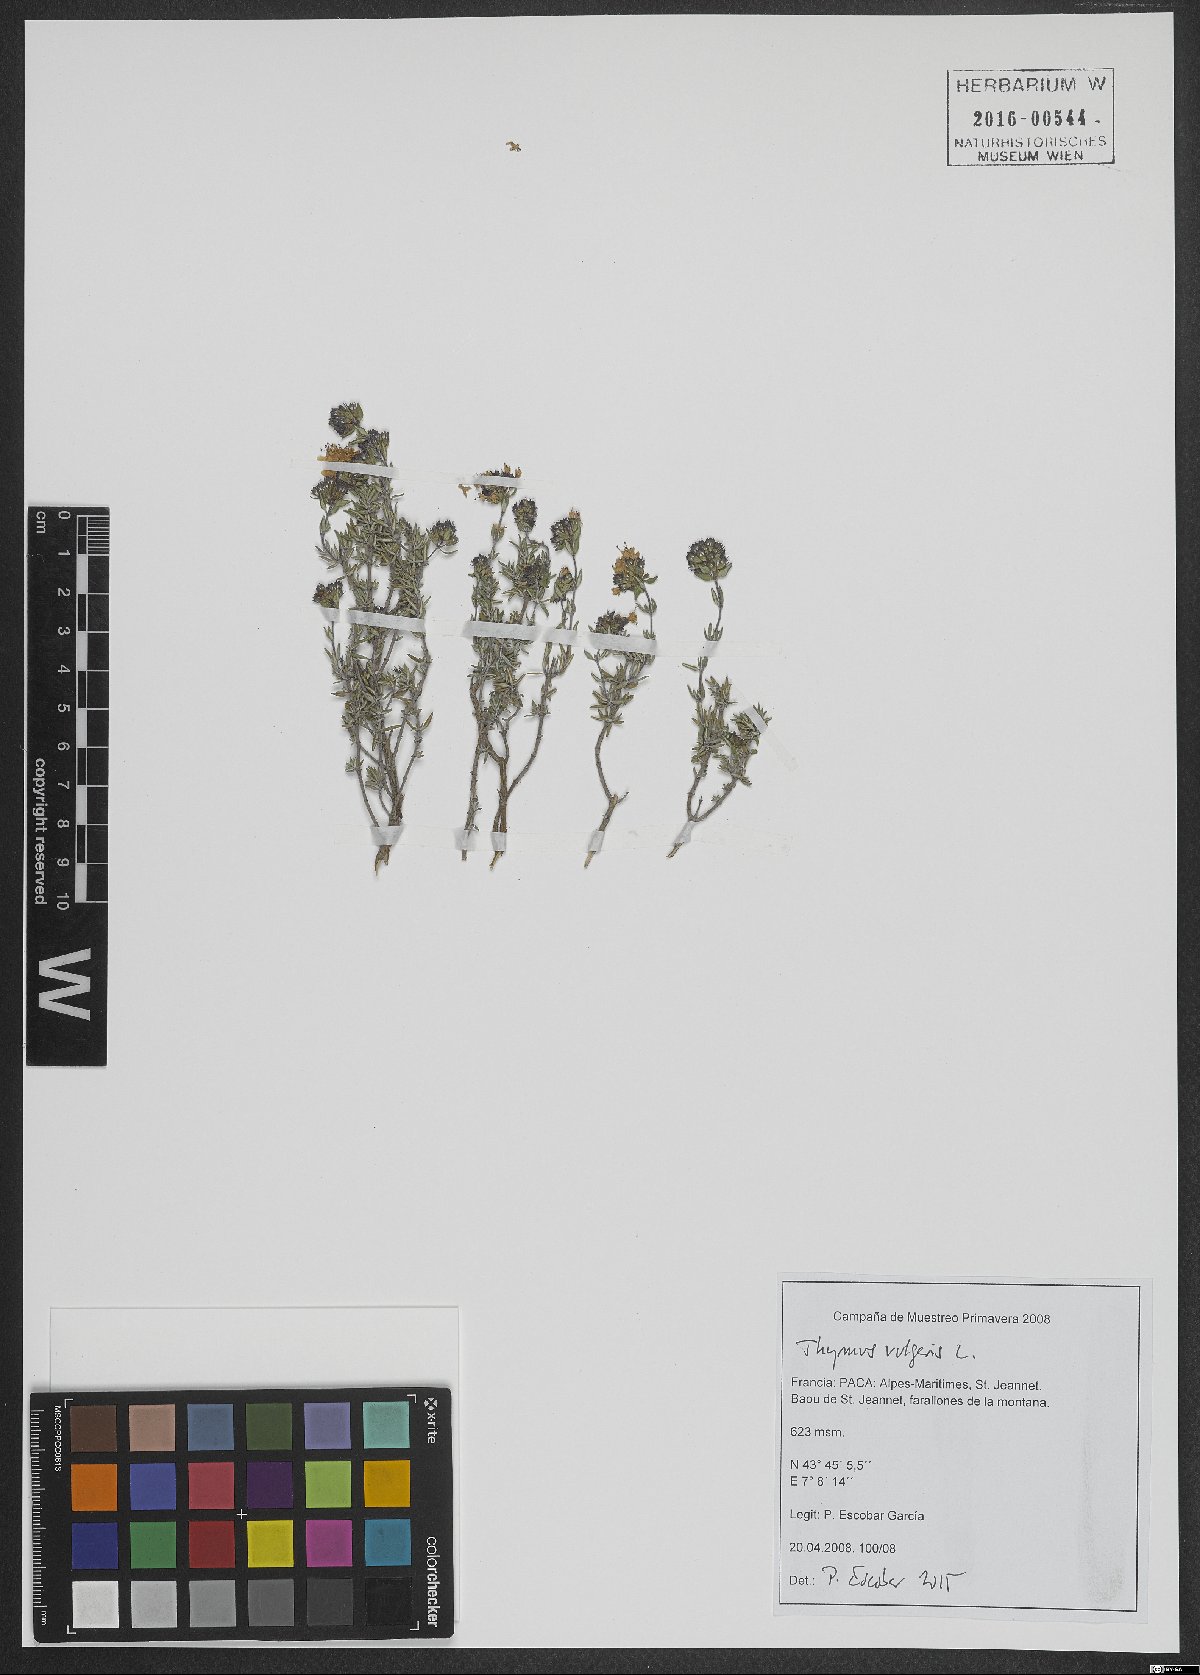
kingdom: Plantae
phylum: Tracheophyta
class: Magnoliopsida
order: Lamiales
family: Lamiaceae
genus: Thymus
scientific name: Thymus vulgaris
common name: Garden thyme
